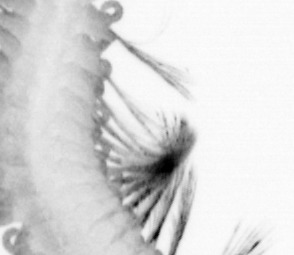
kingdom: Animalia
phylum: Annelida
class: Polychaeta
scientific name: Polychaeta
